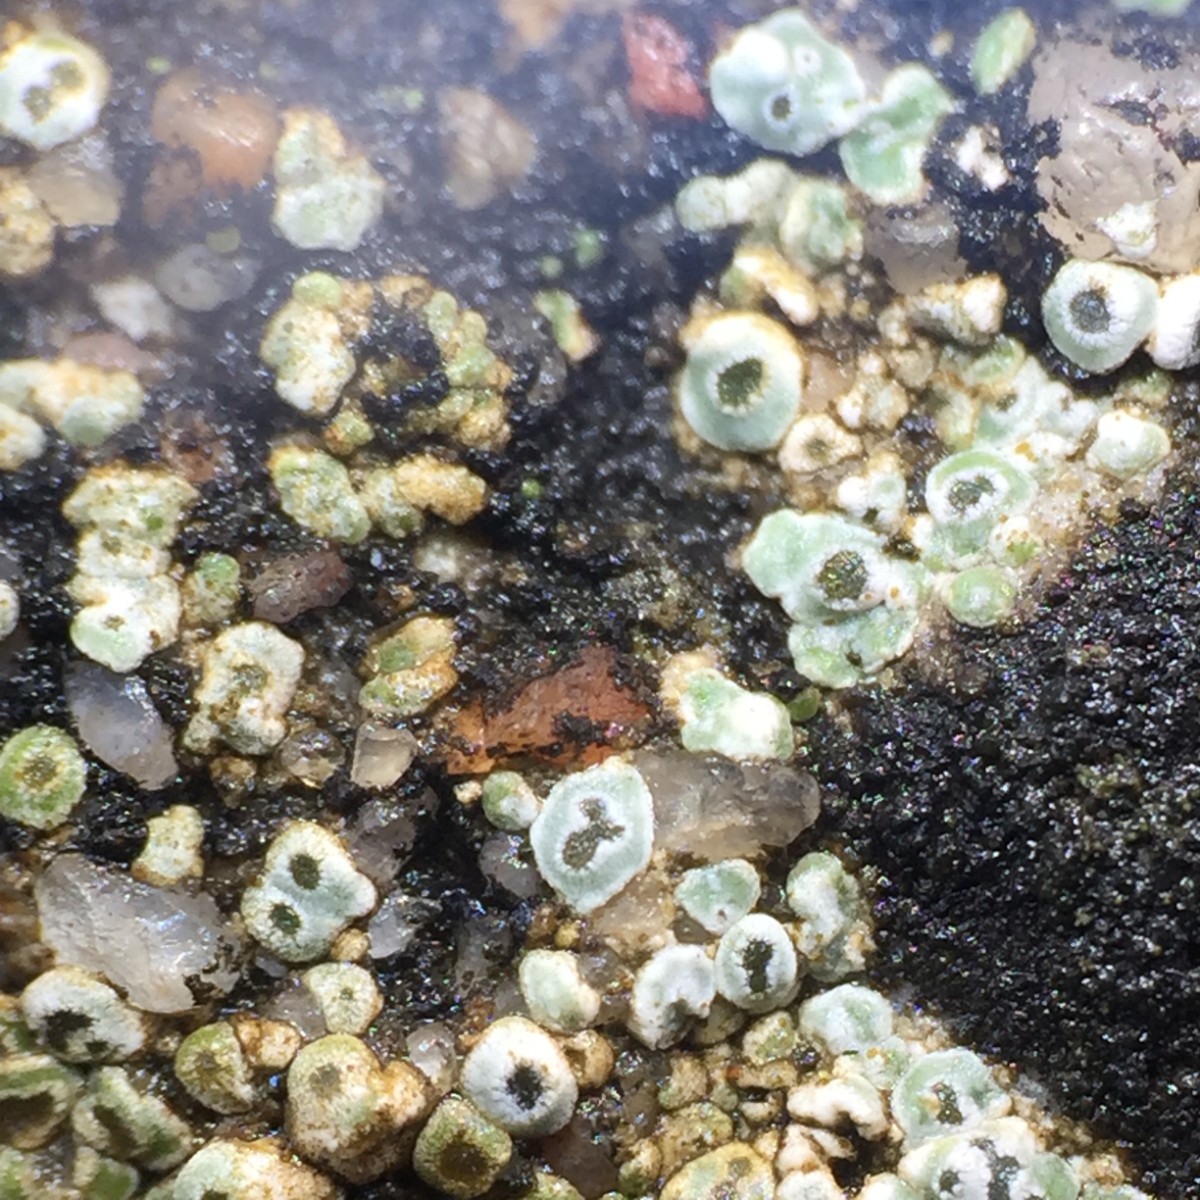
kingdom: Fungi
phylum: Ascomycota
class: Lecanoromycetes
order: Pertusariales
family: Megasporaceae
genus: Circinaria
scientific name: Circinaria contorta
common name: indviklet hulskivelav
